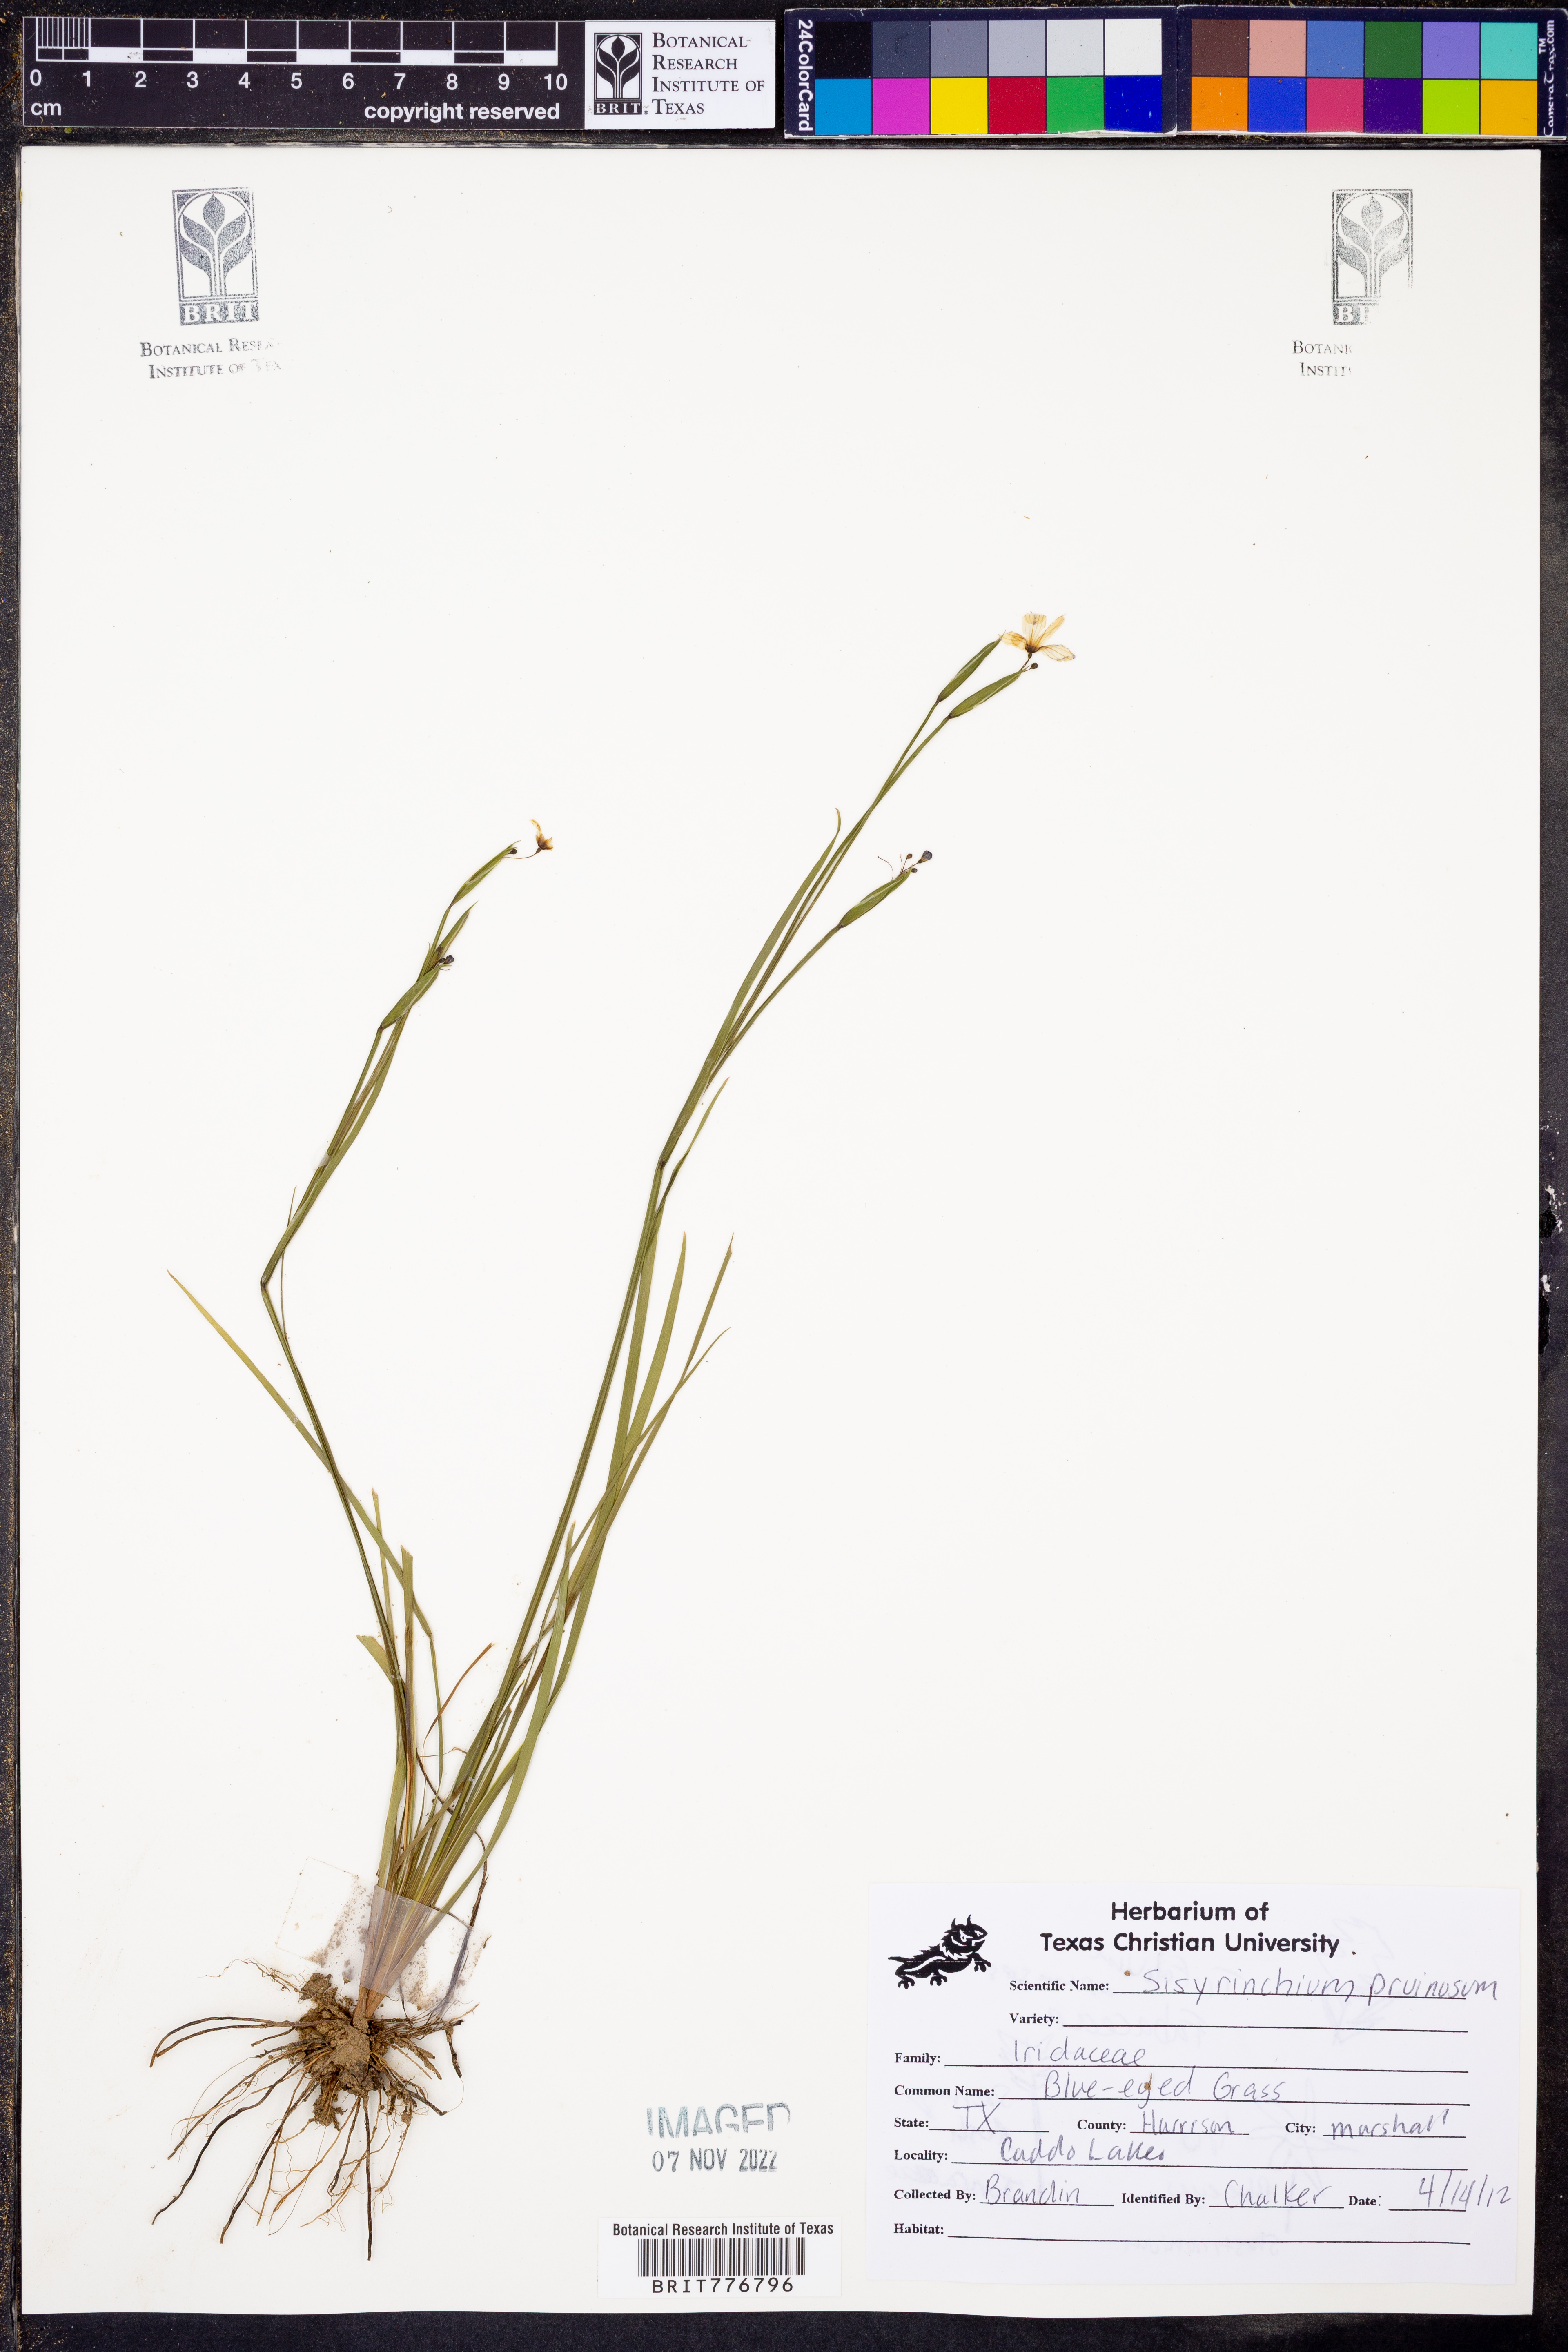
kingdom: Plantae
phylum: Tracheophyta
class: Liliopsida
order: Asparagales
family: Iridaceae
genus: Sisyrinchium
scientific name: Sisyrinchium pruinosum
